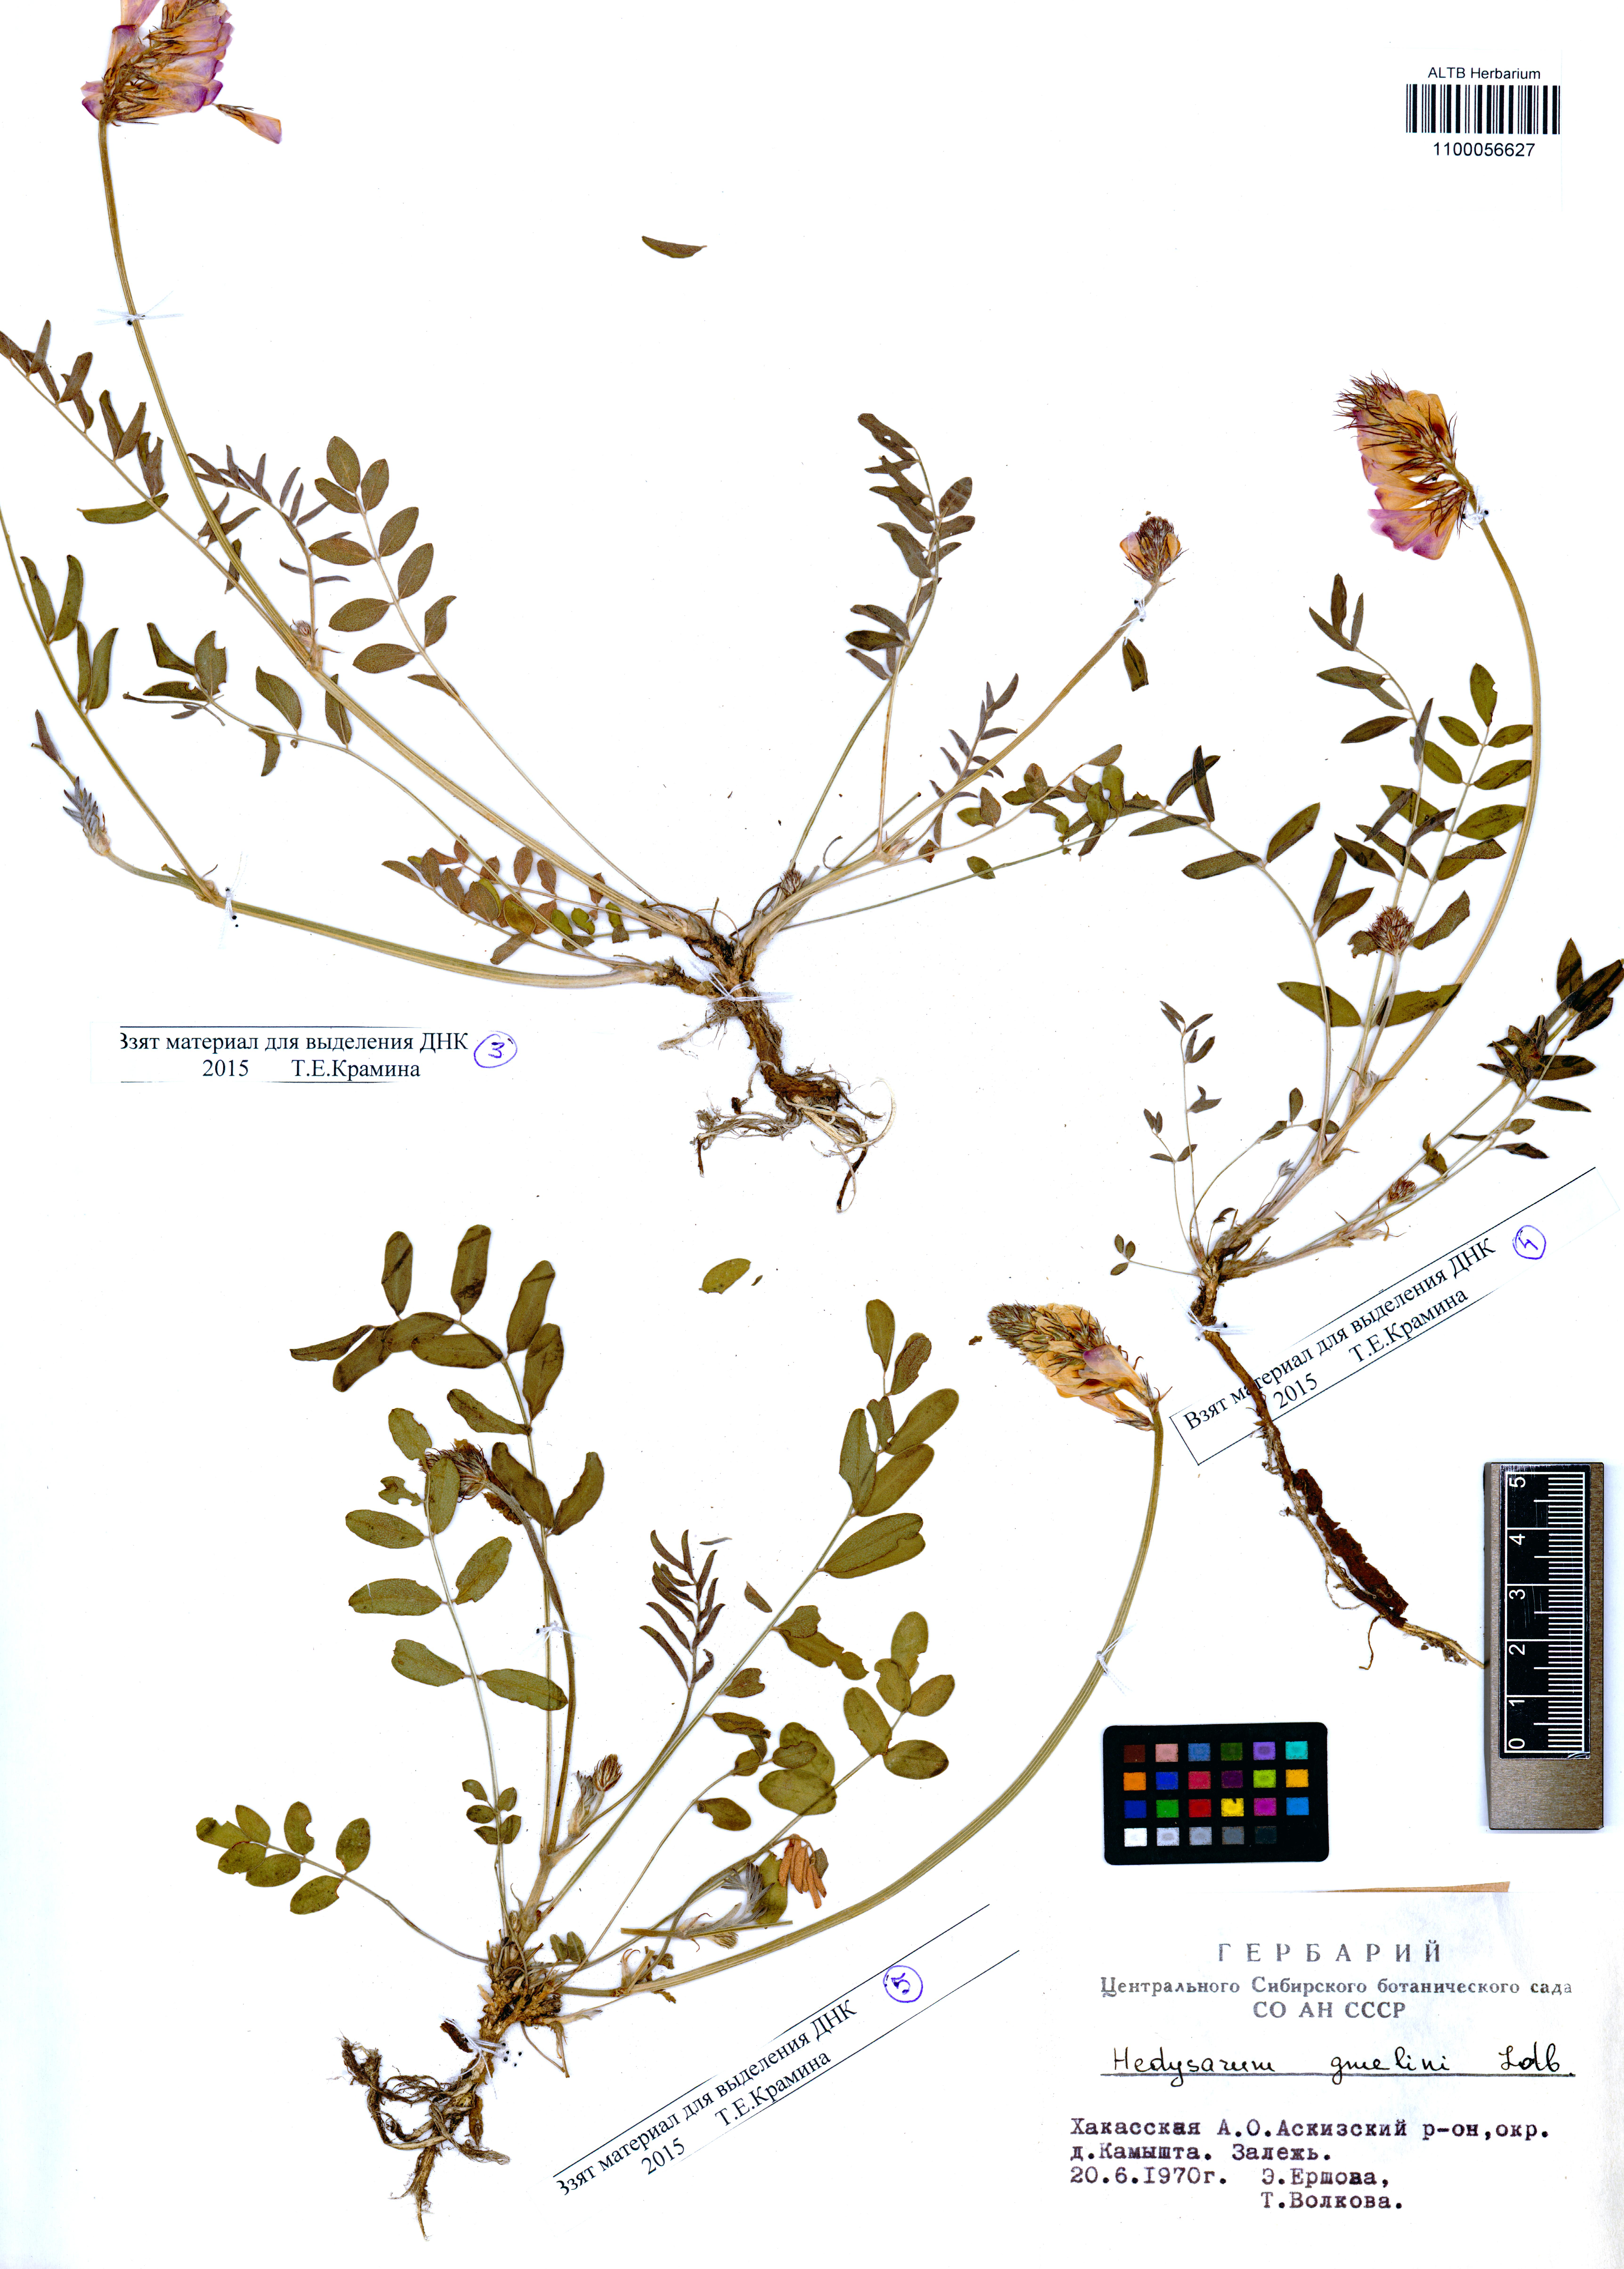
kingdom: Plantae
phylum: Tracheophyta
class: Magnoliopsida
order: Fabales
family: Fabaceae
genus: Hedysarum
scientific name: Hedysarum gmelinii
